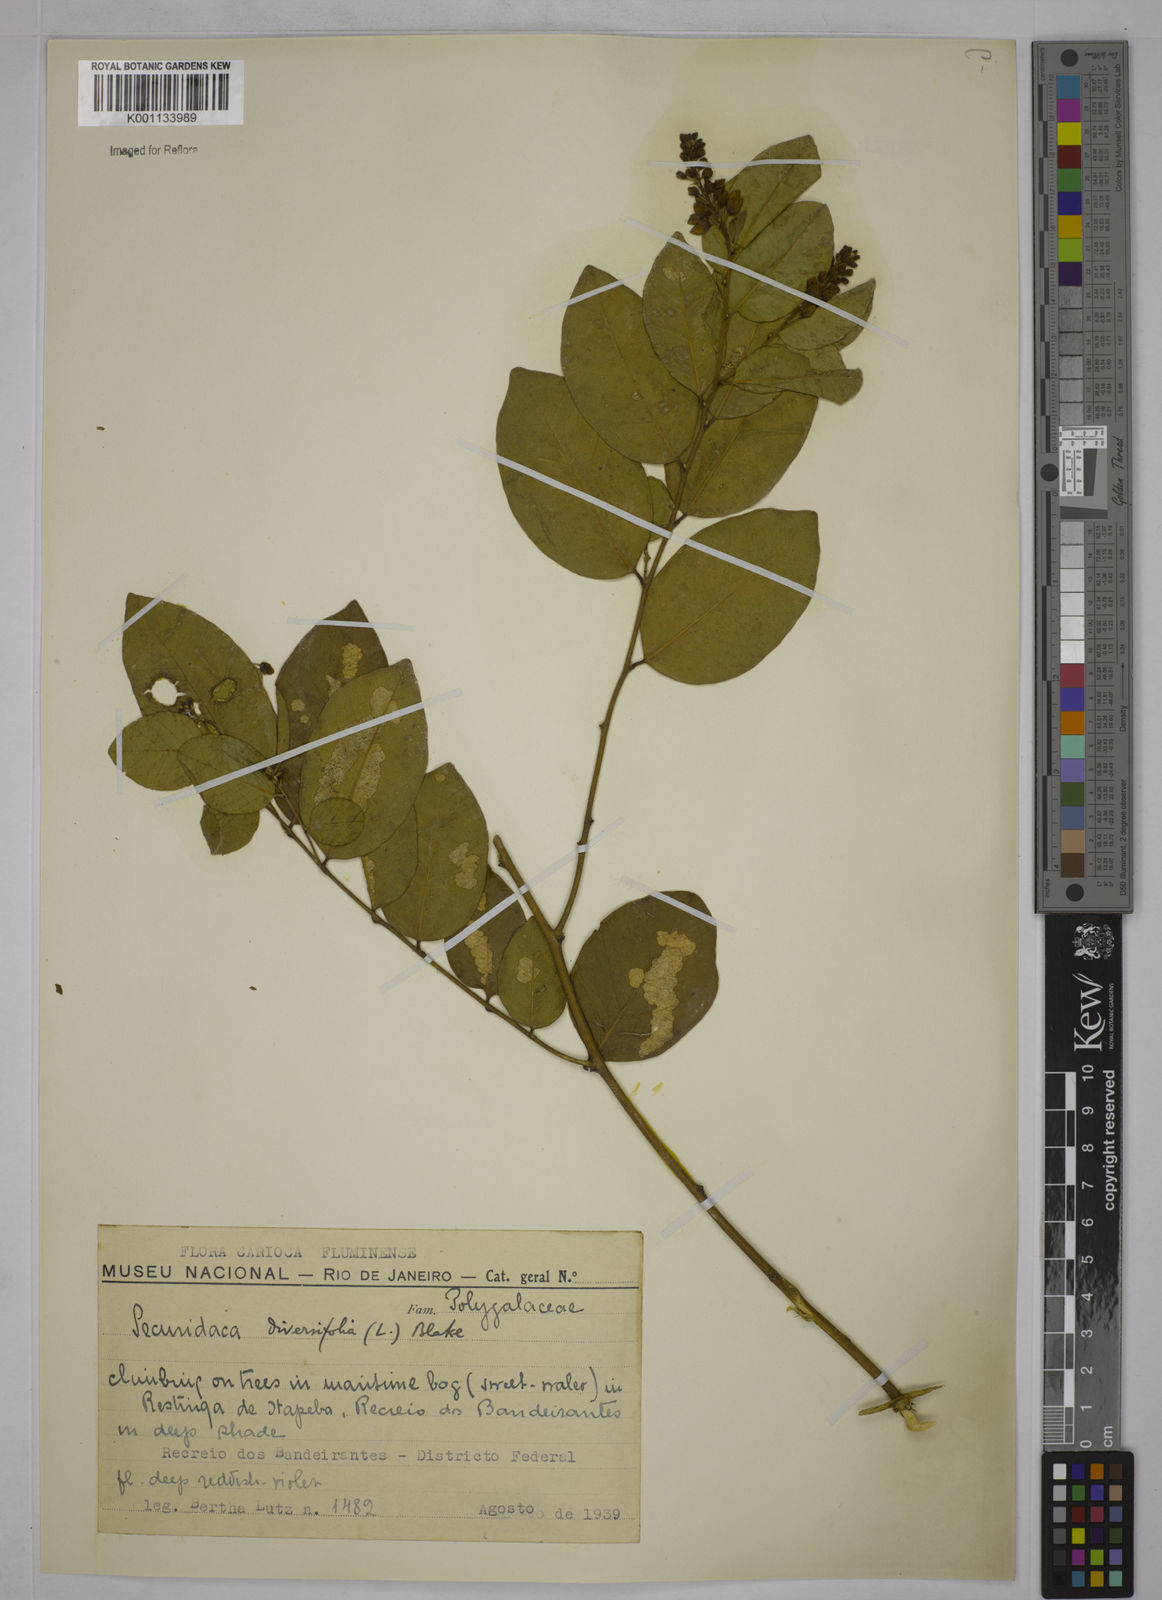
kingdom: Plantae
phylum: Tracheophyta
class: Magnoliopsida
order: Fabales
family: Polygalaceae
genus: Securidaca
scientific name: Securidaca diversifolia
